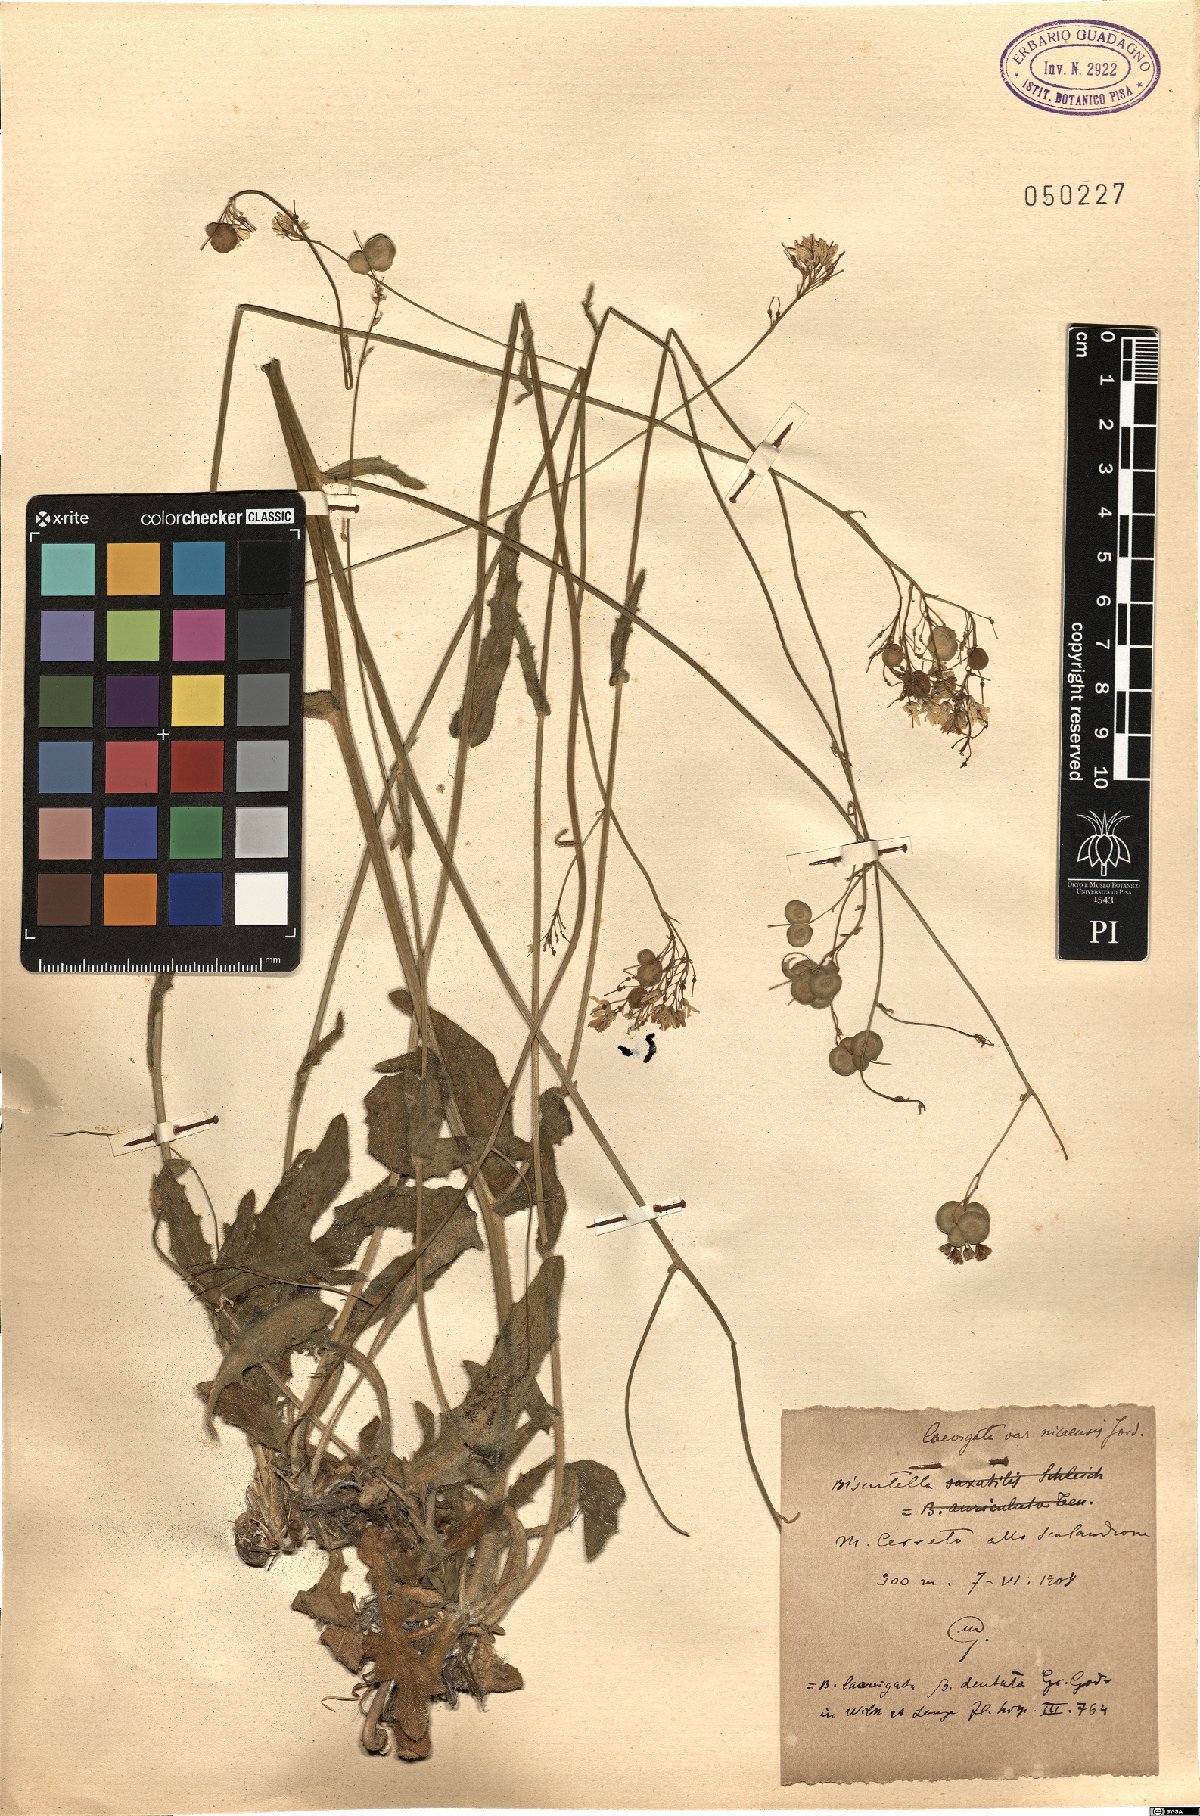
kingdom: Plantae
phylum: Tracheophyta
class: Magnoliopsida
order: Brassicales
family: Brassicaceae
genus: Biscutella
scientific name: Biscutella ambigua
